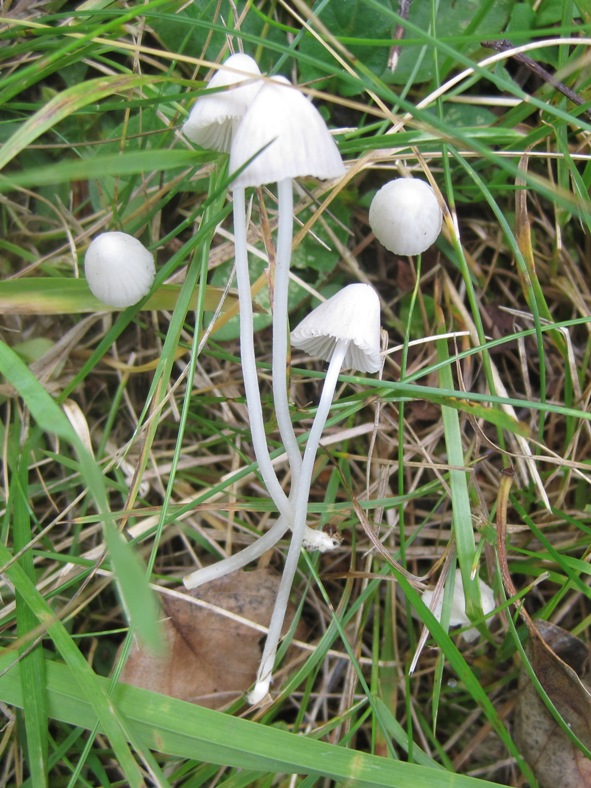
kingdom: Fungi
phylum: Basidiomycota
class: Agaricomycetes
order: Agaricales
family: Mycenaceae
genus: Mycena
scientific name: Mycena galopus
